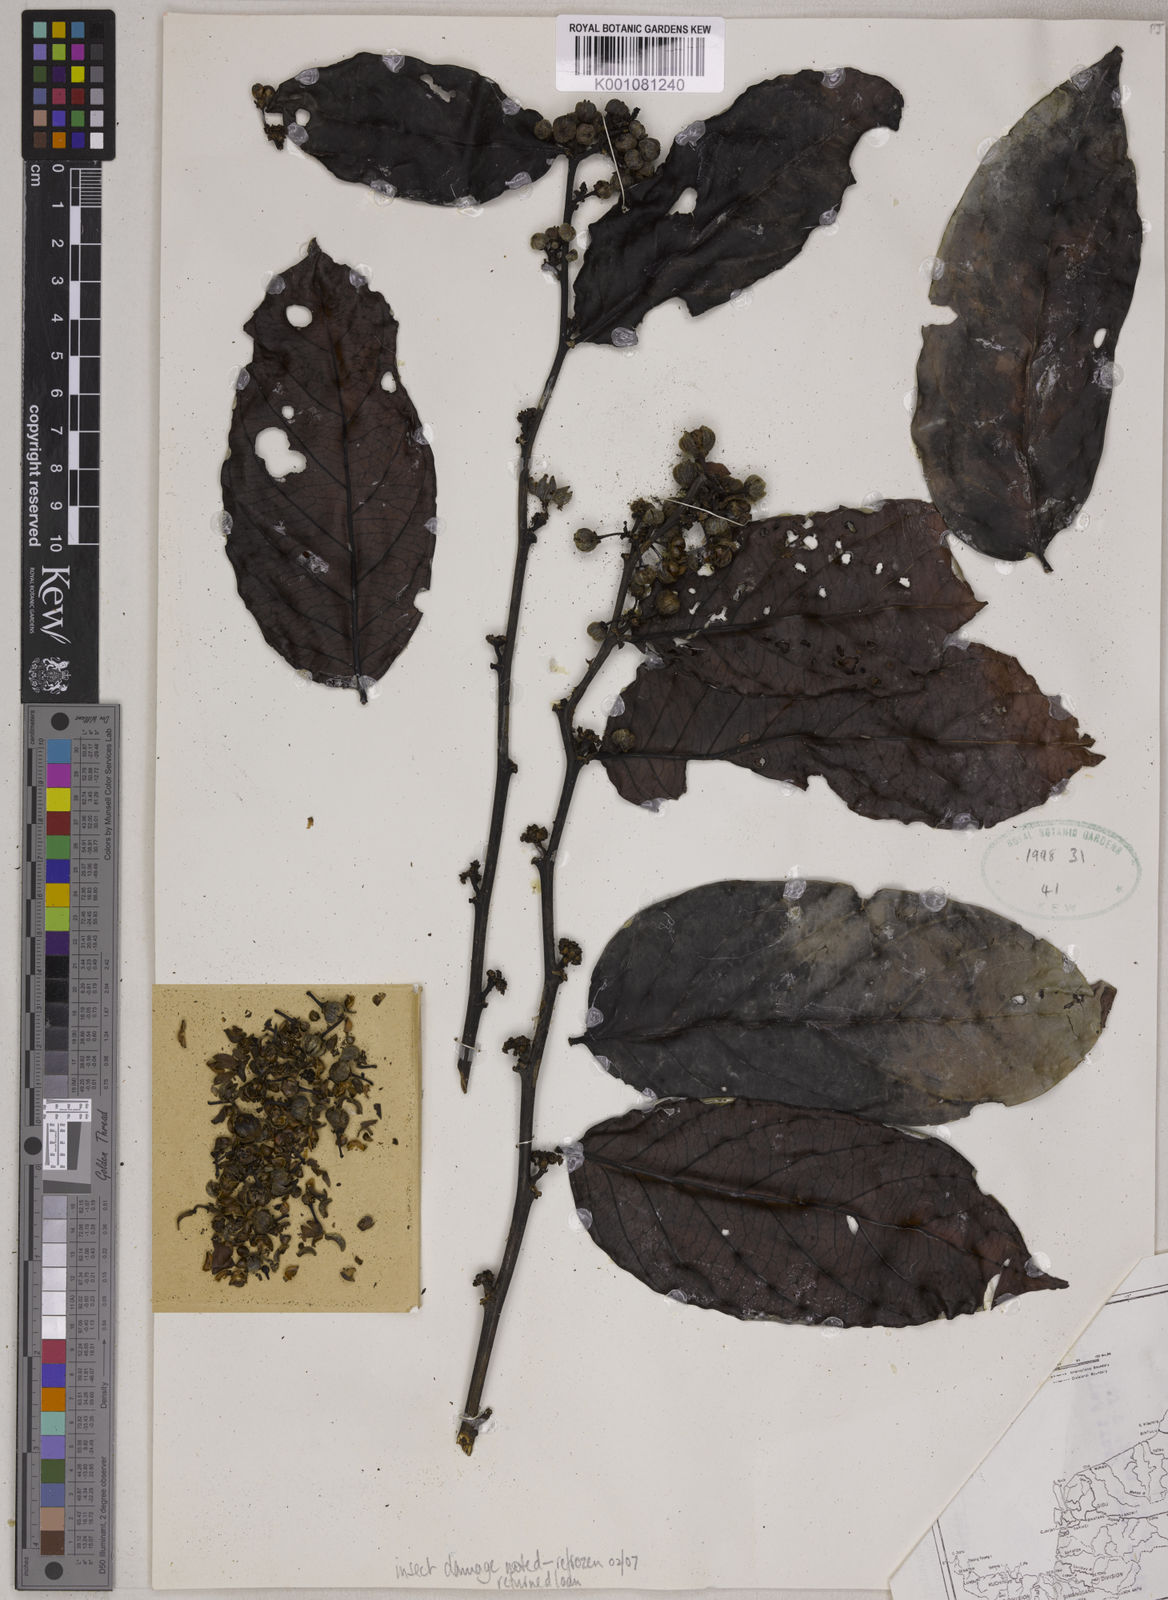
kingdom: Plantae
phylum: Tracheophyta
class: Magnoliopsida
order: Malpighiales
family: Phyllanthaceae
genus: Glochidion
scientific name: Glochidion pubicapsa
